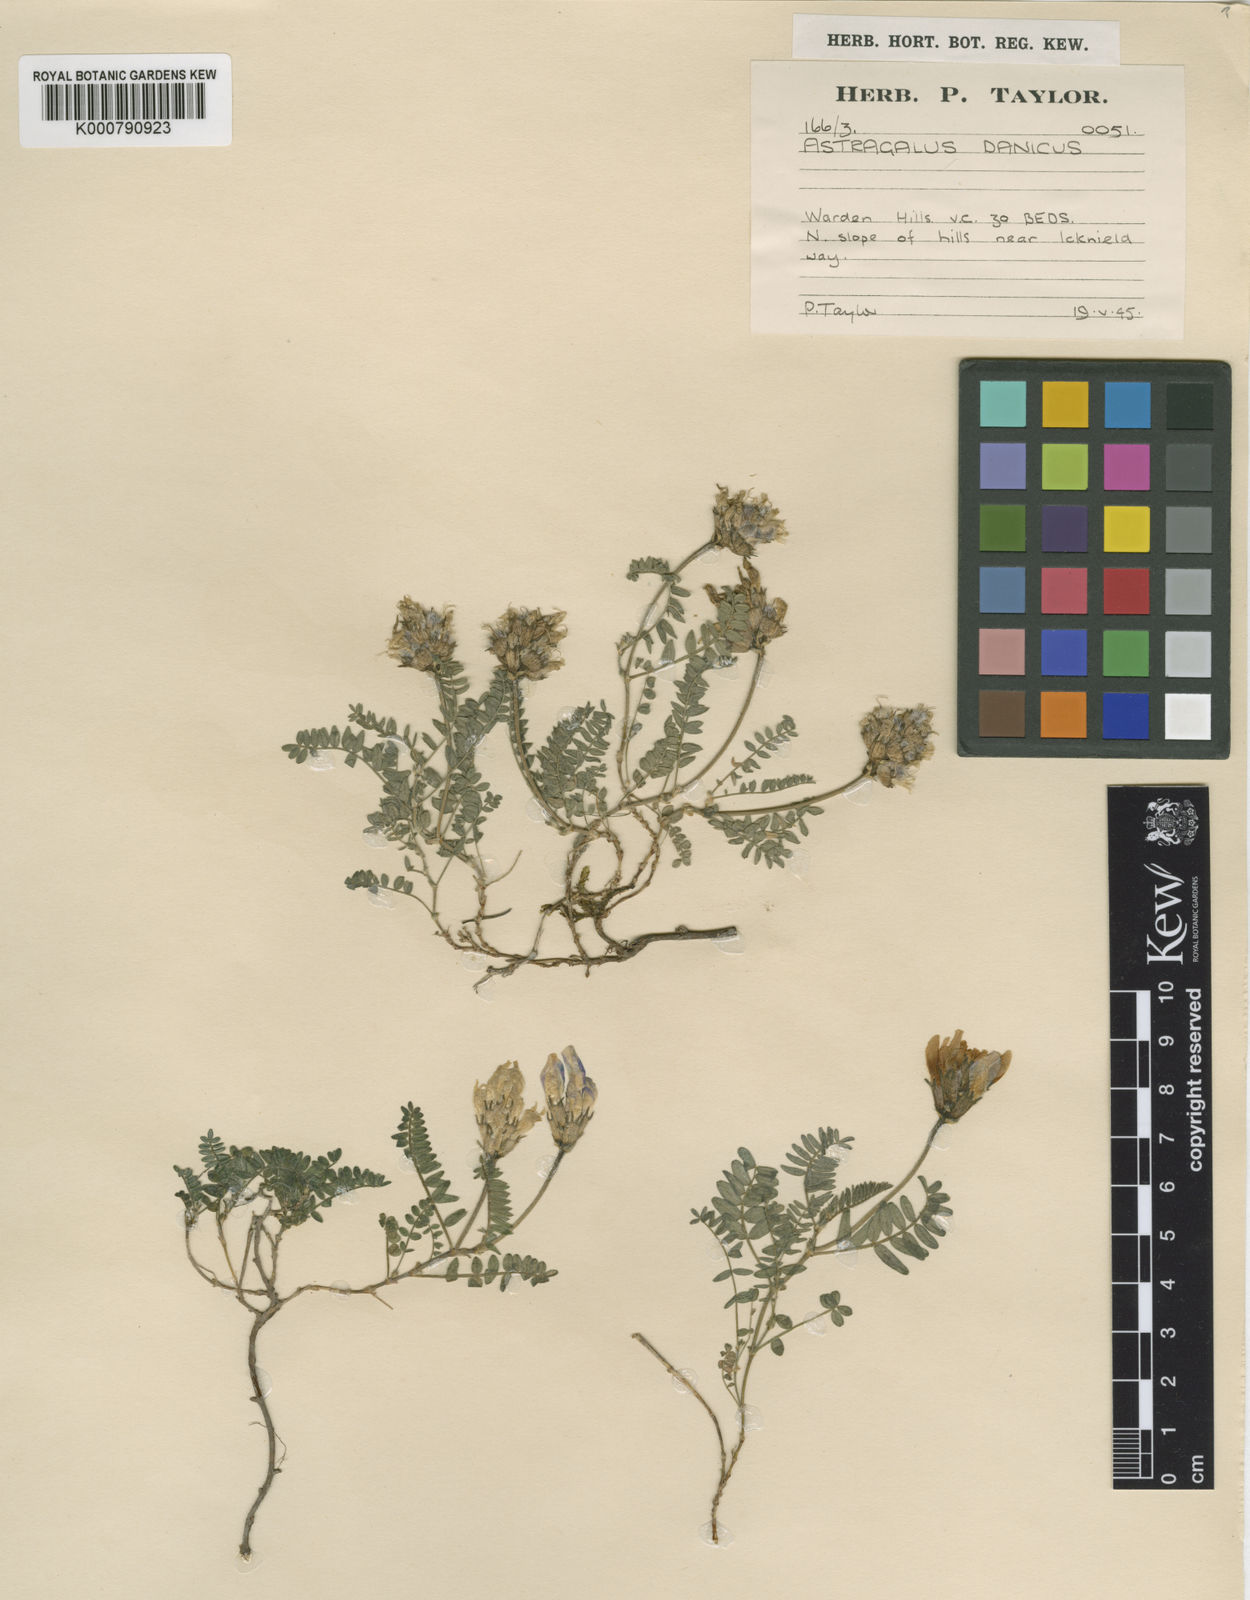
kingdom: Plantae
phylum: Tracheophyta
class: Magnoliopsida
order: Fabales
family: Fabaceae
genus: Astragalus
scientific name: Astragalus danicus
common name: Purple milk-vetch
